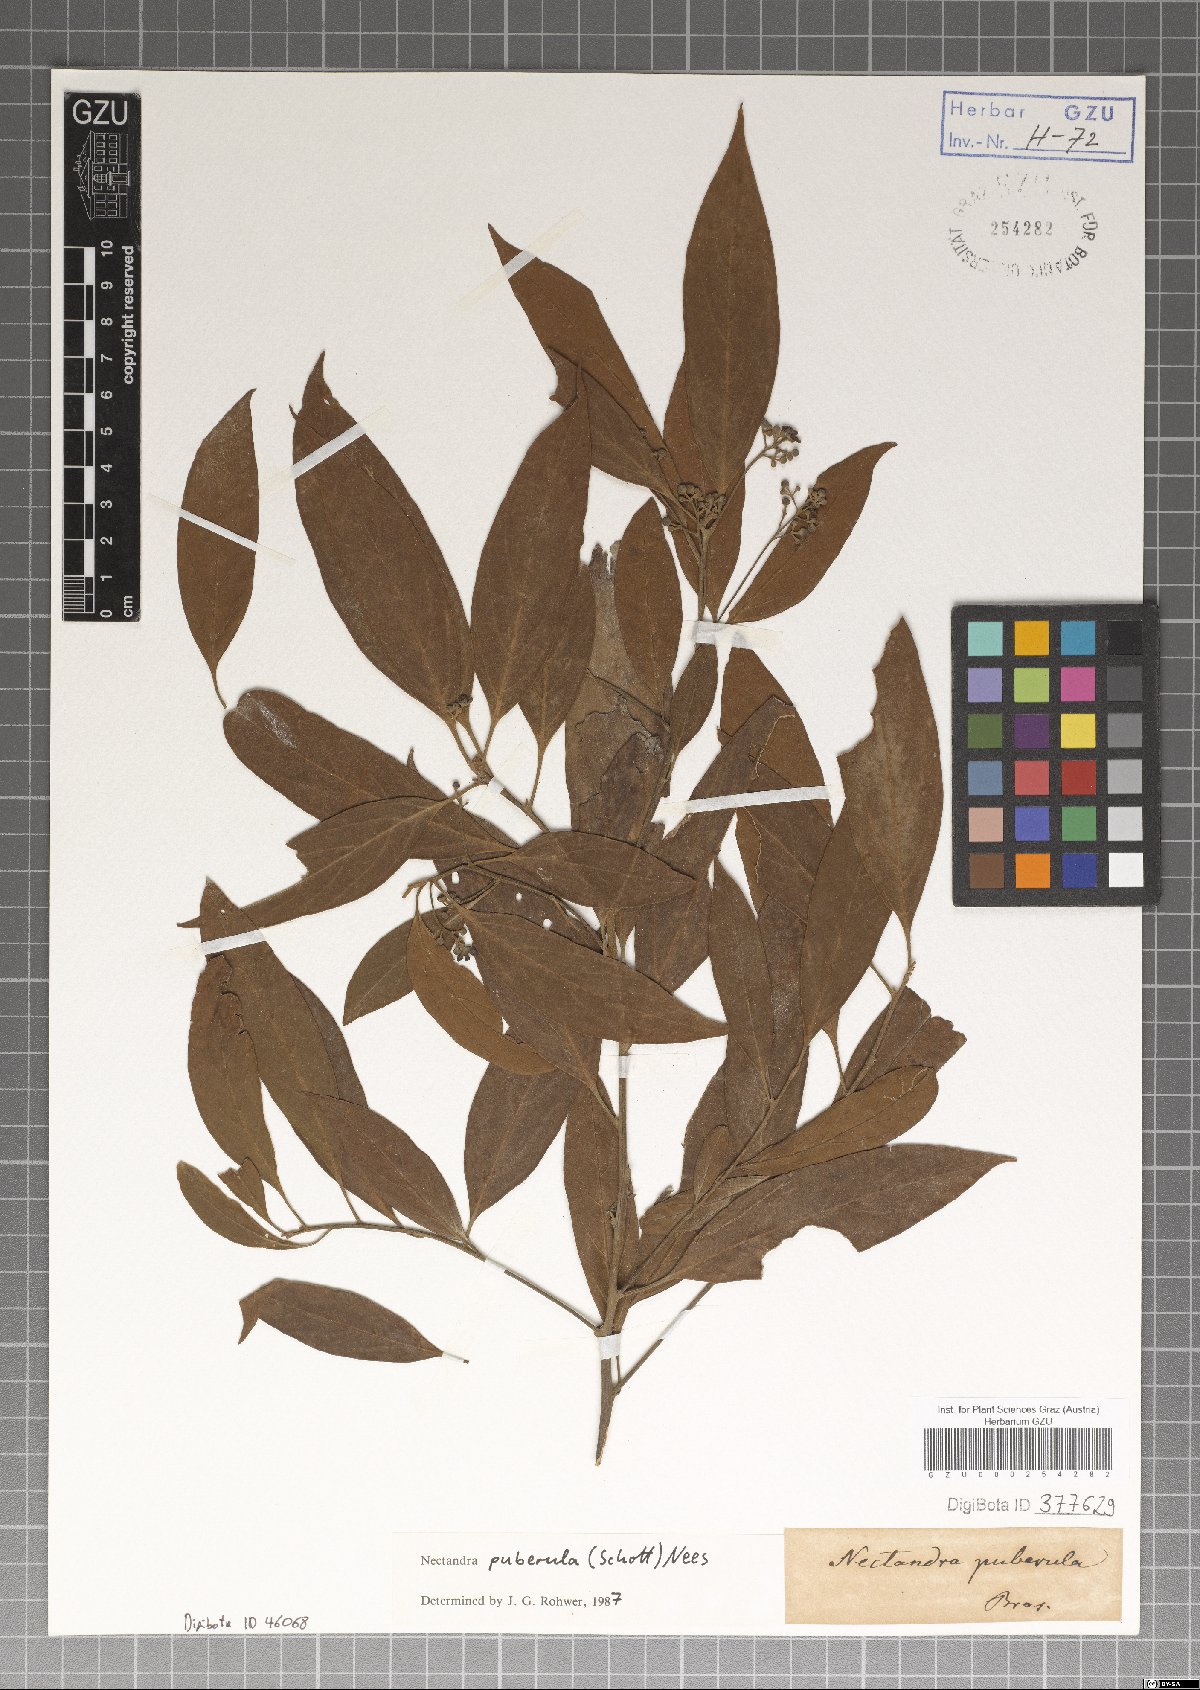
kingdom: Plantae
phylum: Tracheophyta
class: Magnoliopsida
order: Laurales
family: Lauraceae
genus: Nectandra
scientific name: Nectandra puberula
